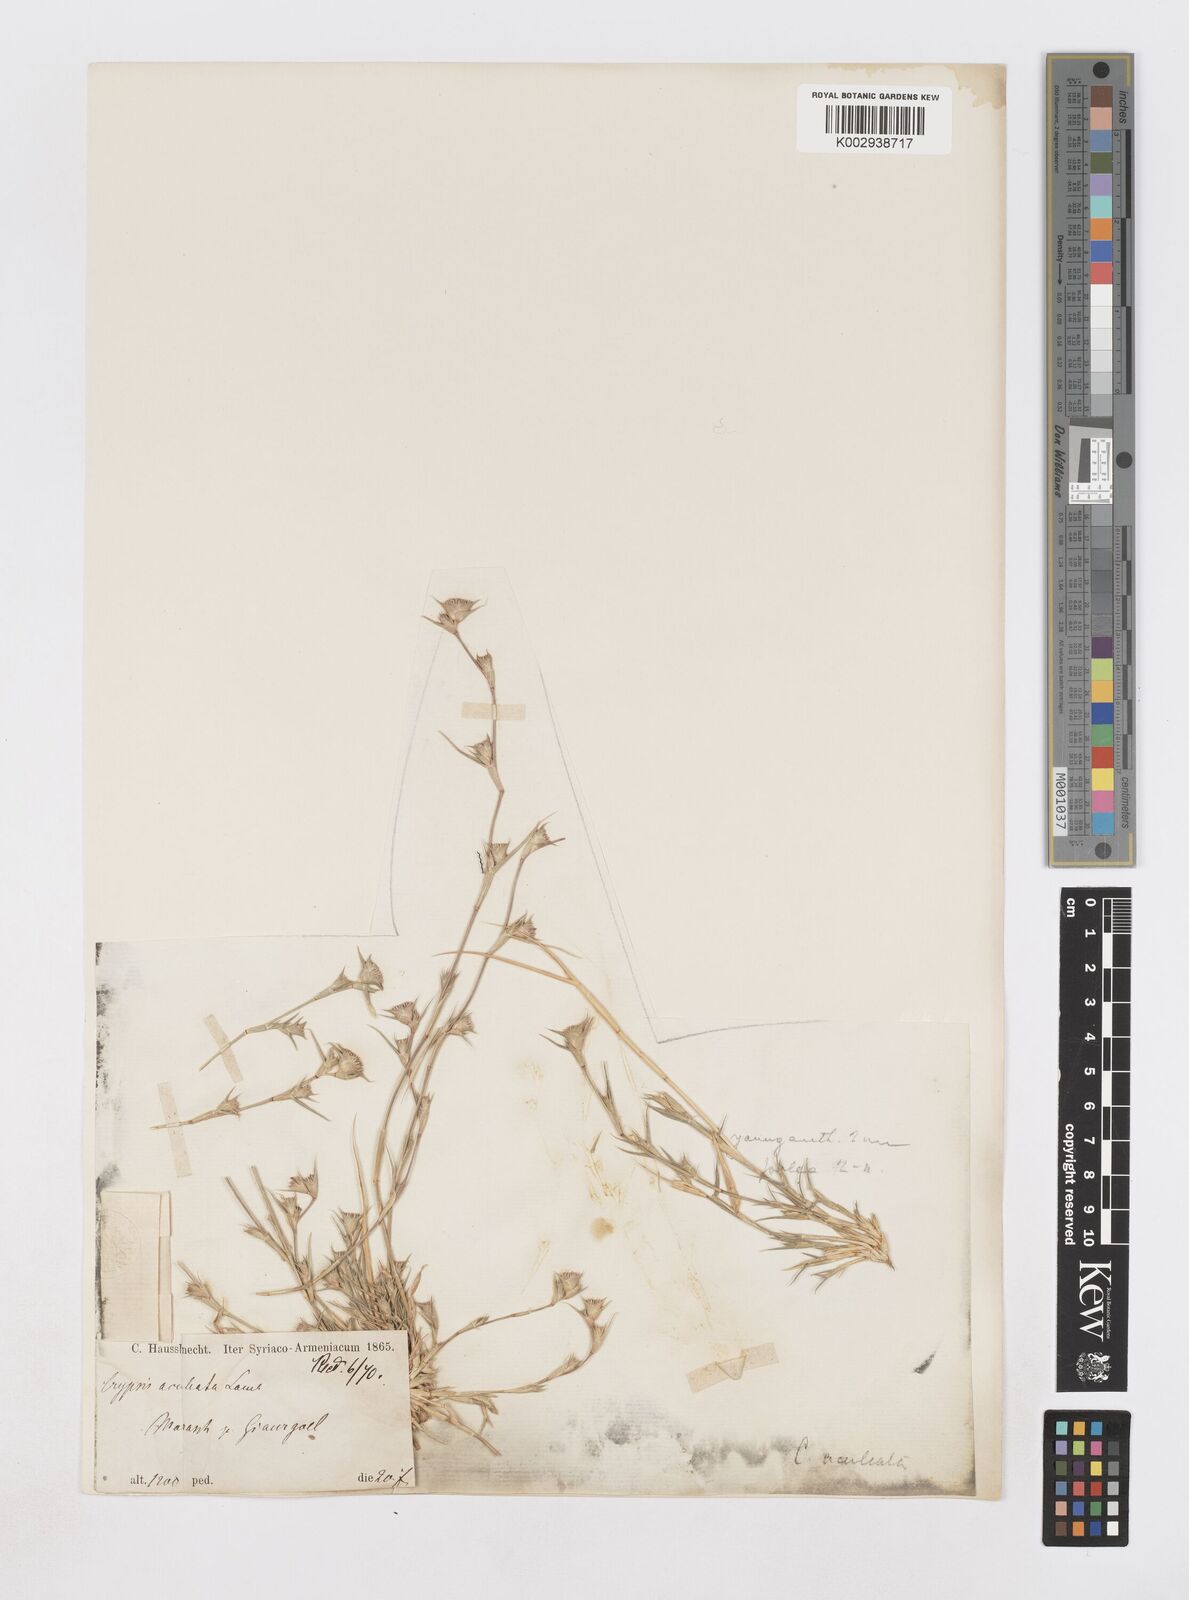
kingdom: Plantae
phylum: Tracheophyta
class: Liliopsida
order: Poales
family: Poaceae
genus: Sporobolus
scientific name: Sporobolus factorovskyi
